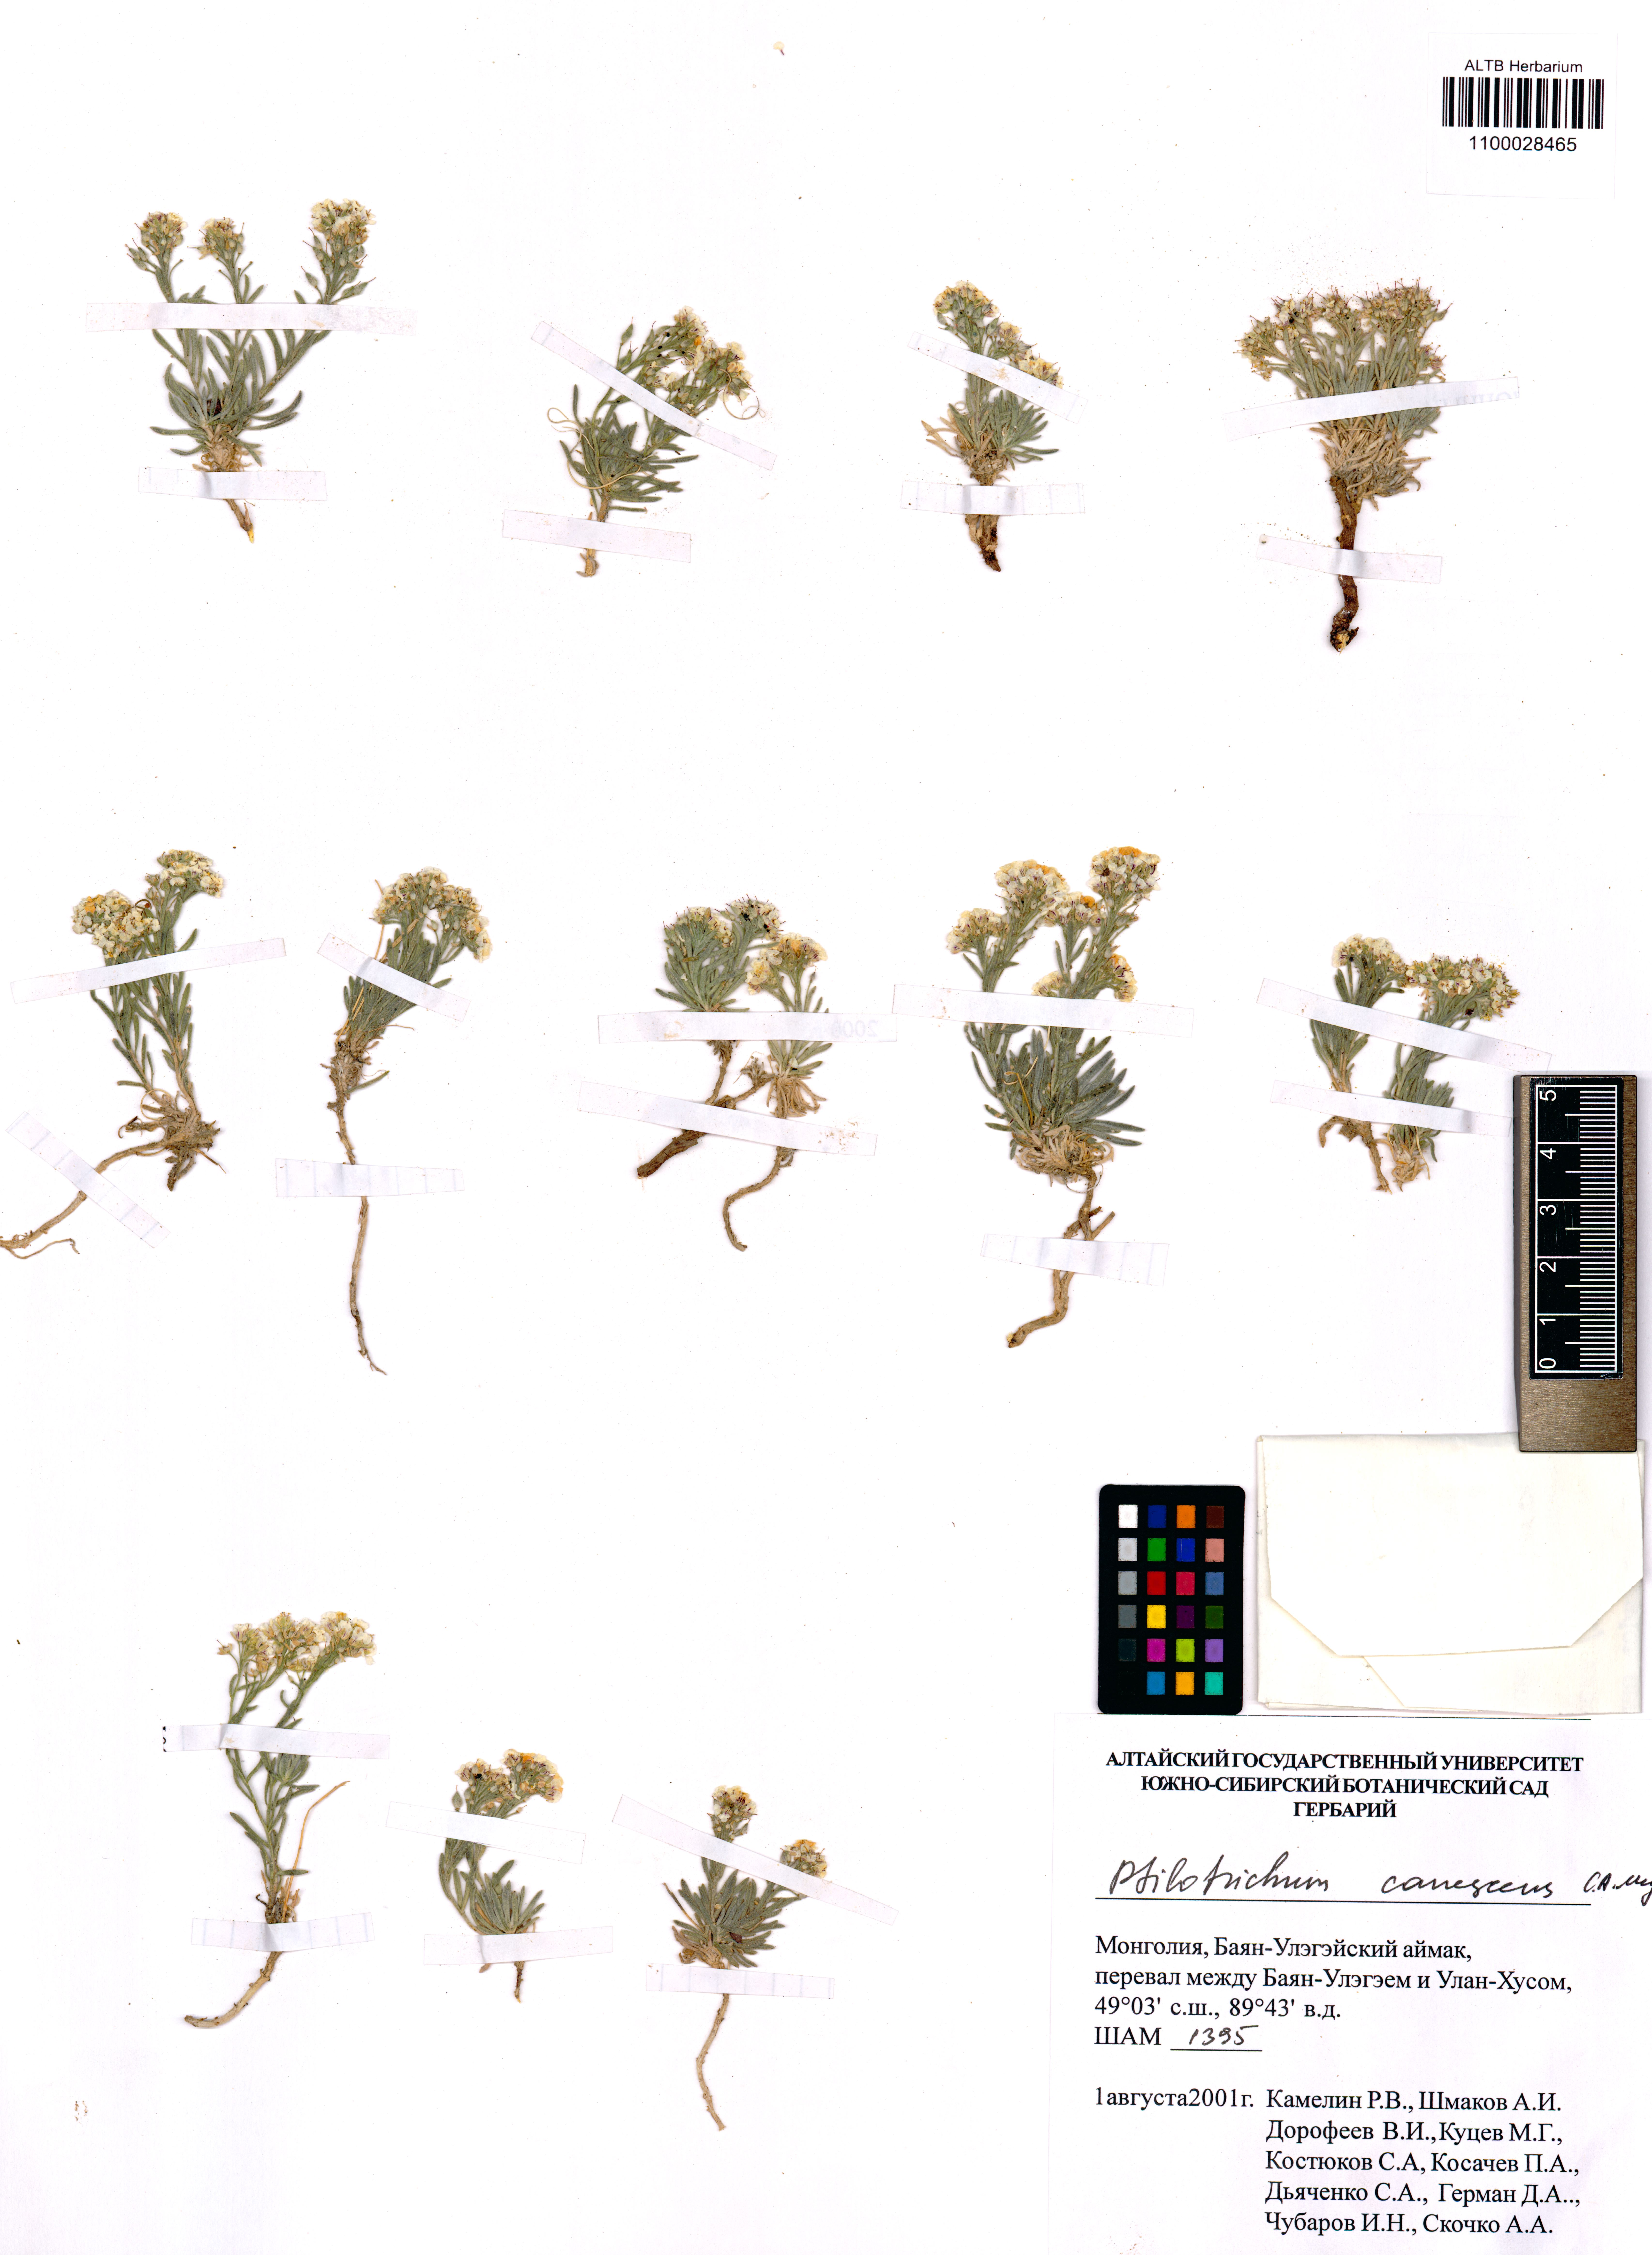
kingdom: Plantae
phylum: Tracheophyta
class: Magnoliopsida
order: Brassicales
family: Brassicaceae
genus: Stevenia
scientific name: Stevenia canescens
